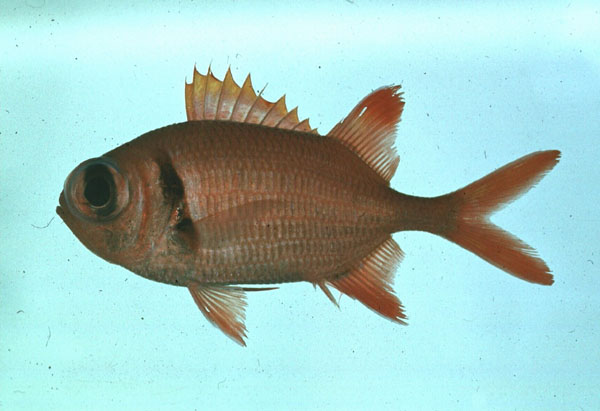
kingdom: Animalia
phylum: Chordata
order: Beryciformes
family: Holocentridae
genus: Myripristis
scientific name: Myripristis kuntee
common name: Epaulette soldierfish
